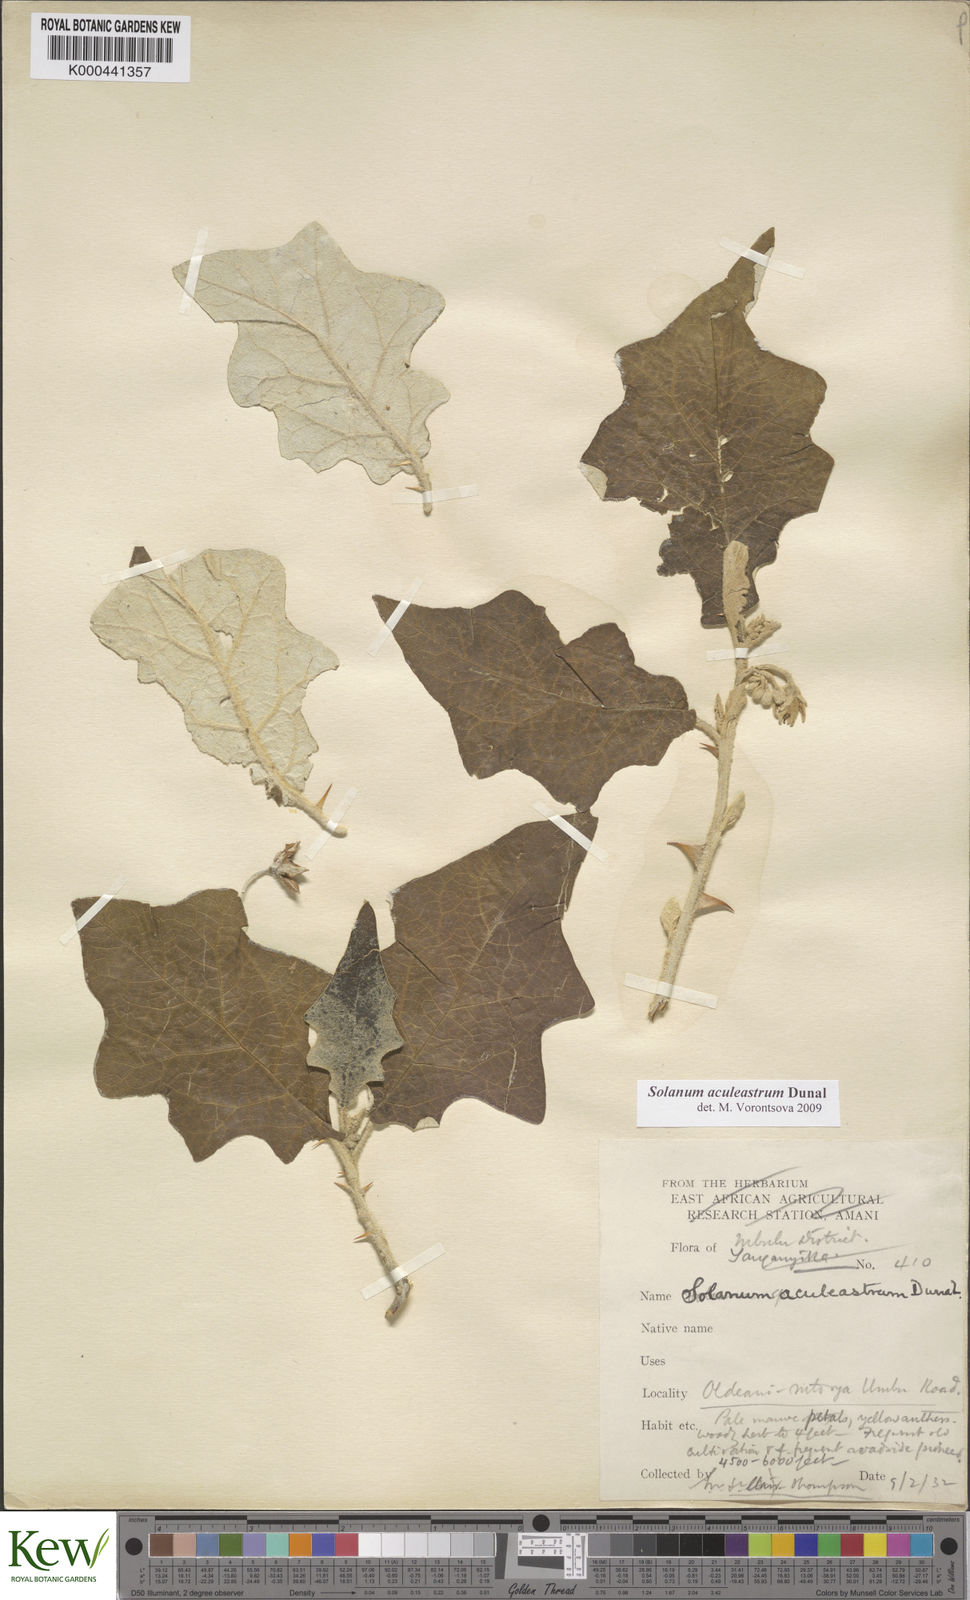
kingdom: Plantae
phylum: Tracheophyta
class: Magnoliopsida
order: Solanales
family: Solanaceae
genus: Solanum
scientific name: Solanum aculeastrum
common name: Goat bitter-apple
